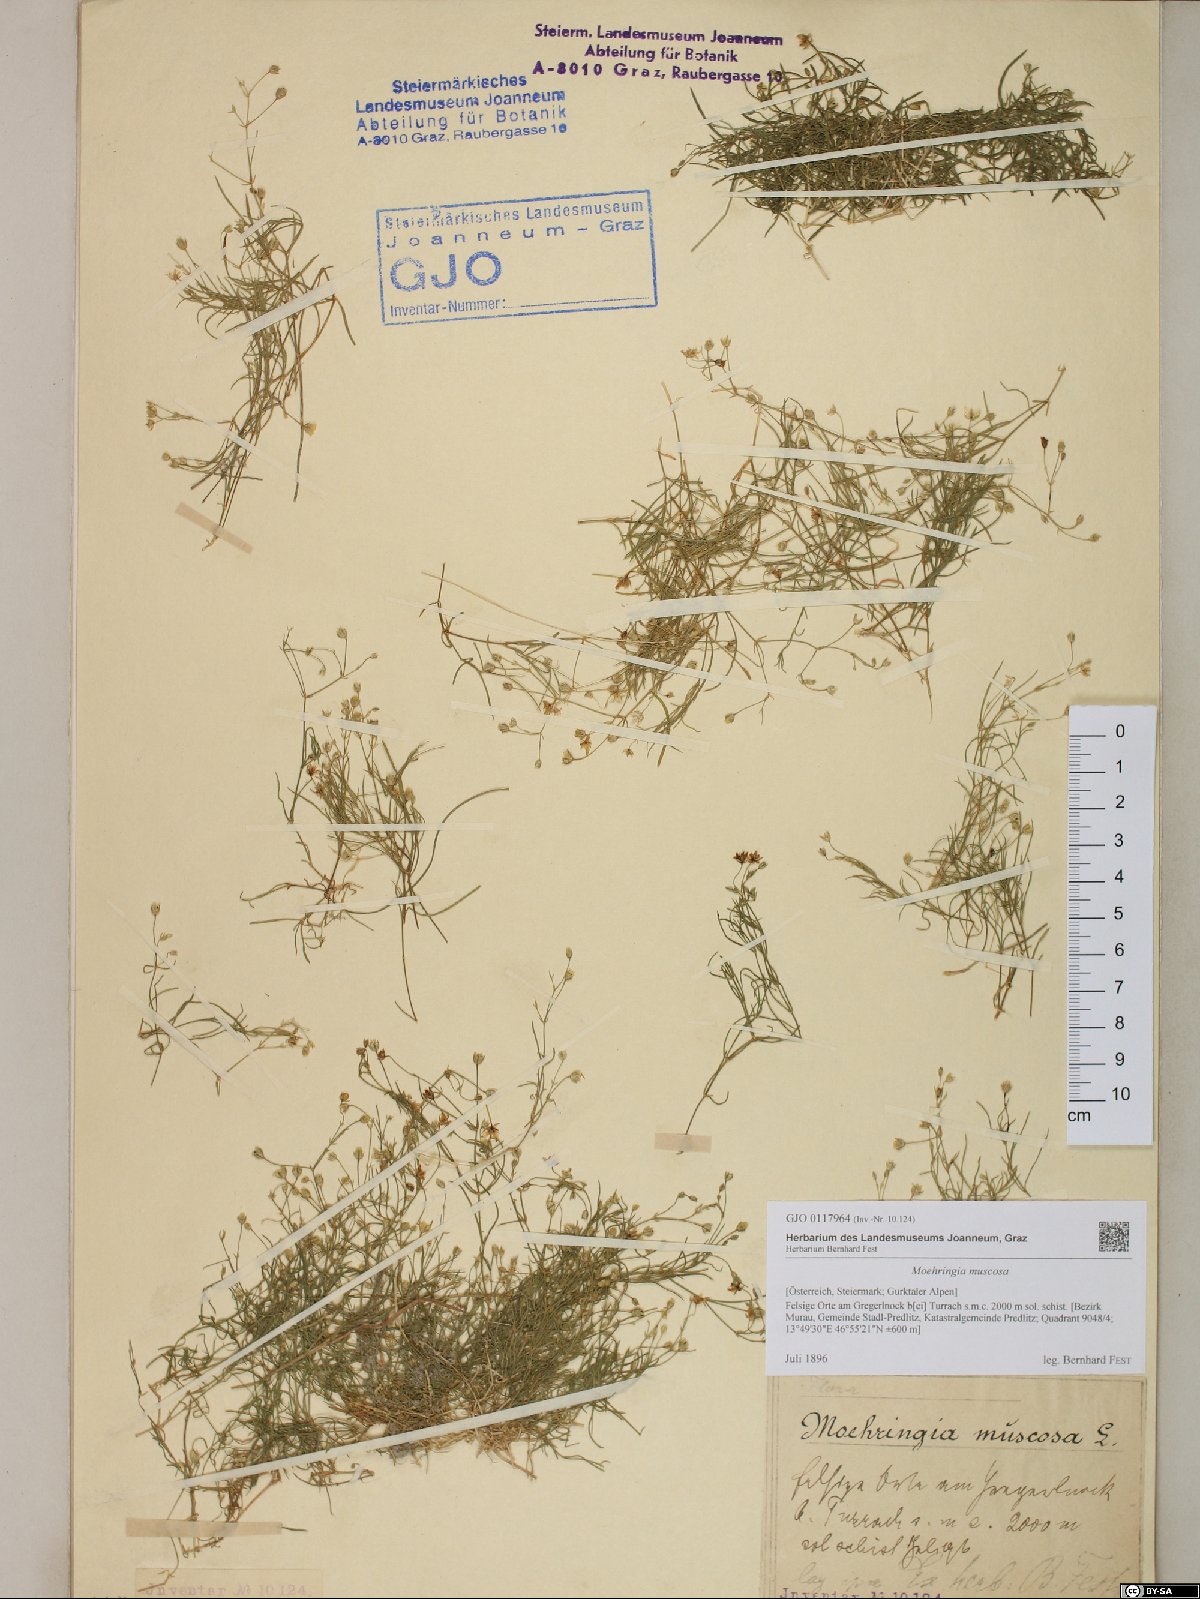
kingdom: Plantae
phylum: Tracheophyta
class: Magnoliopsida
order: Caryophyllales
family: Caryophyllaceae
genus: Moehringia
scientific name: Moehringia muscosa
